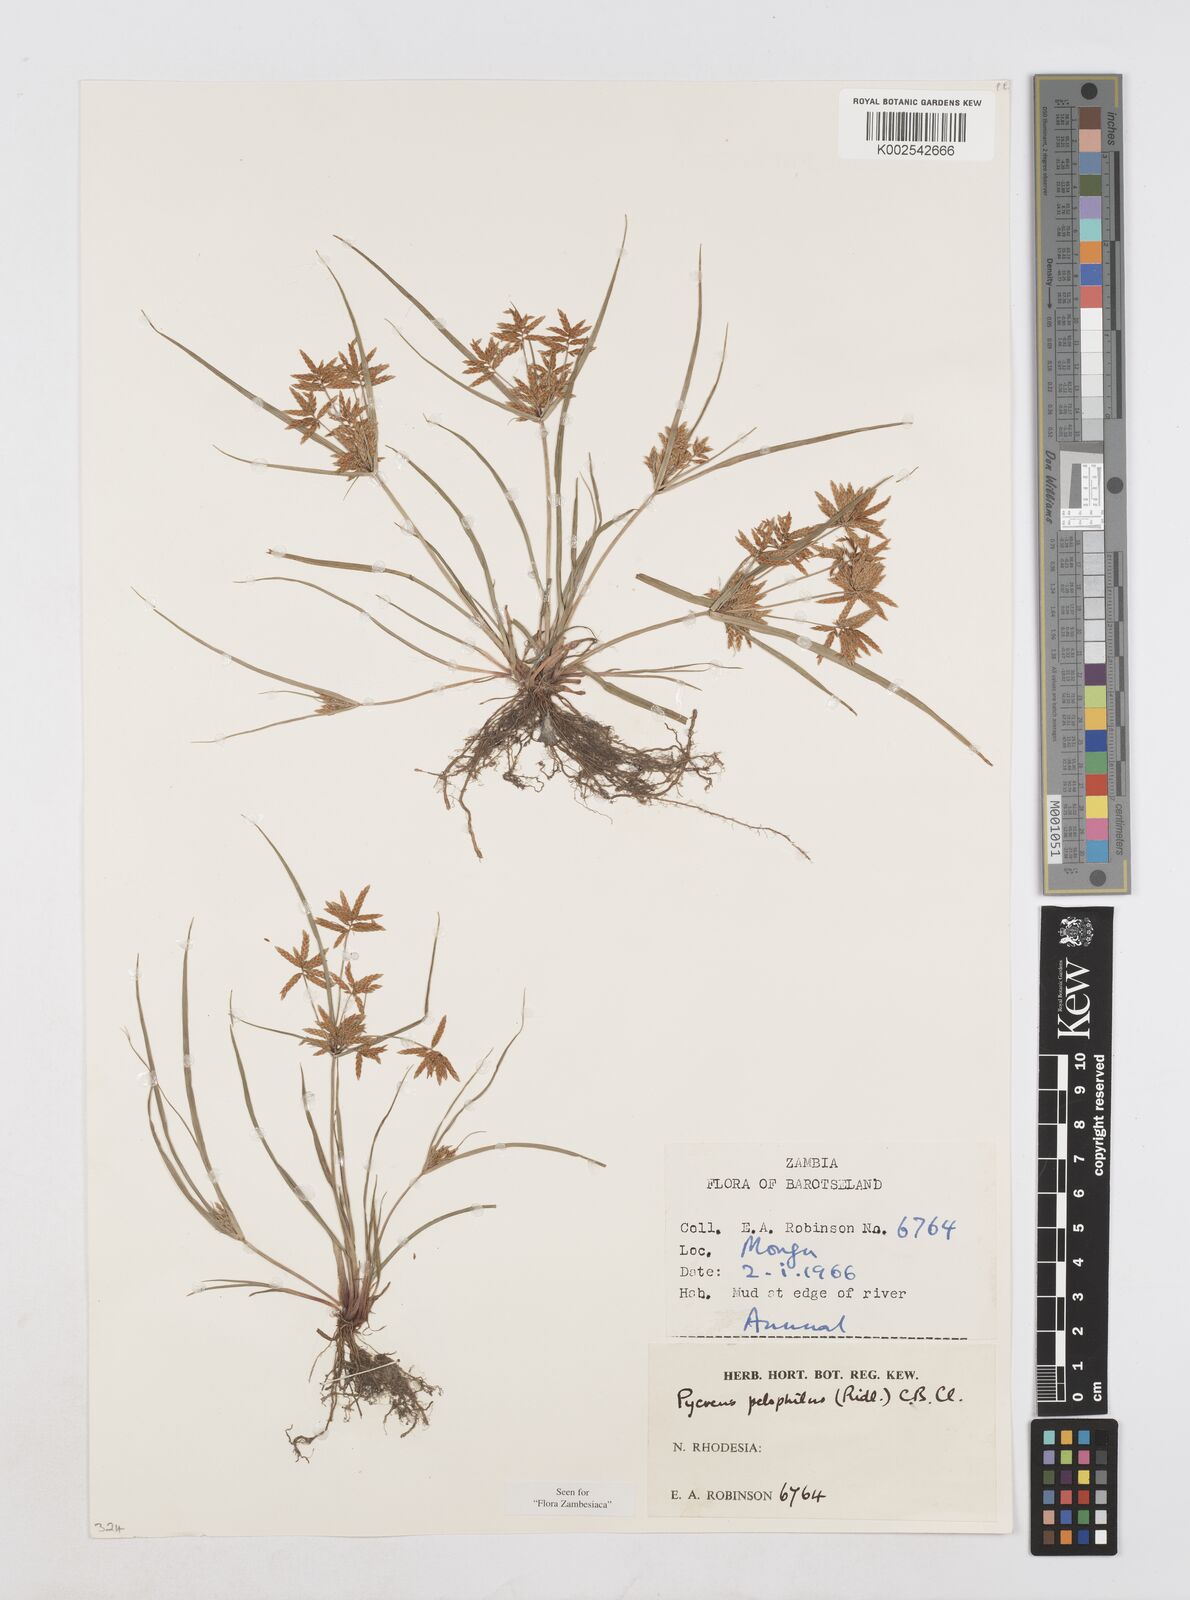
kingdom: Plantae
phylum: Tracheophyta
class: Liliopsida
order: Poales
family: Cyperaceae
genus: Cyperus
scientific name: Cyperus pelophilus
